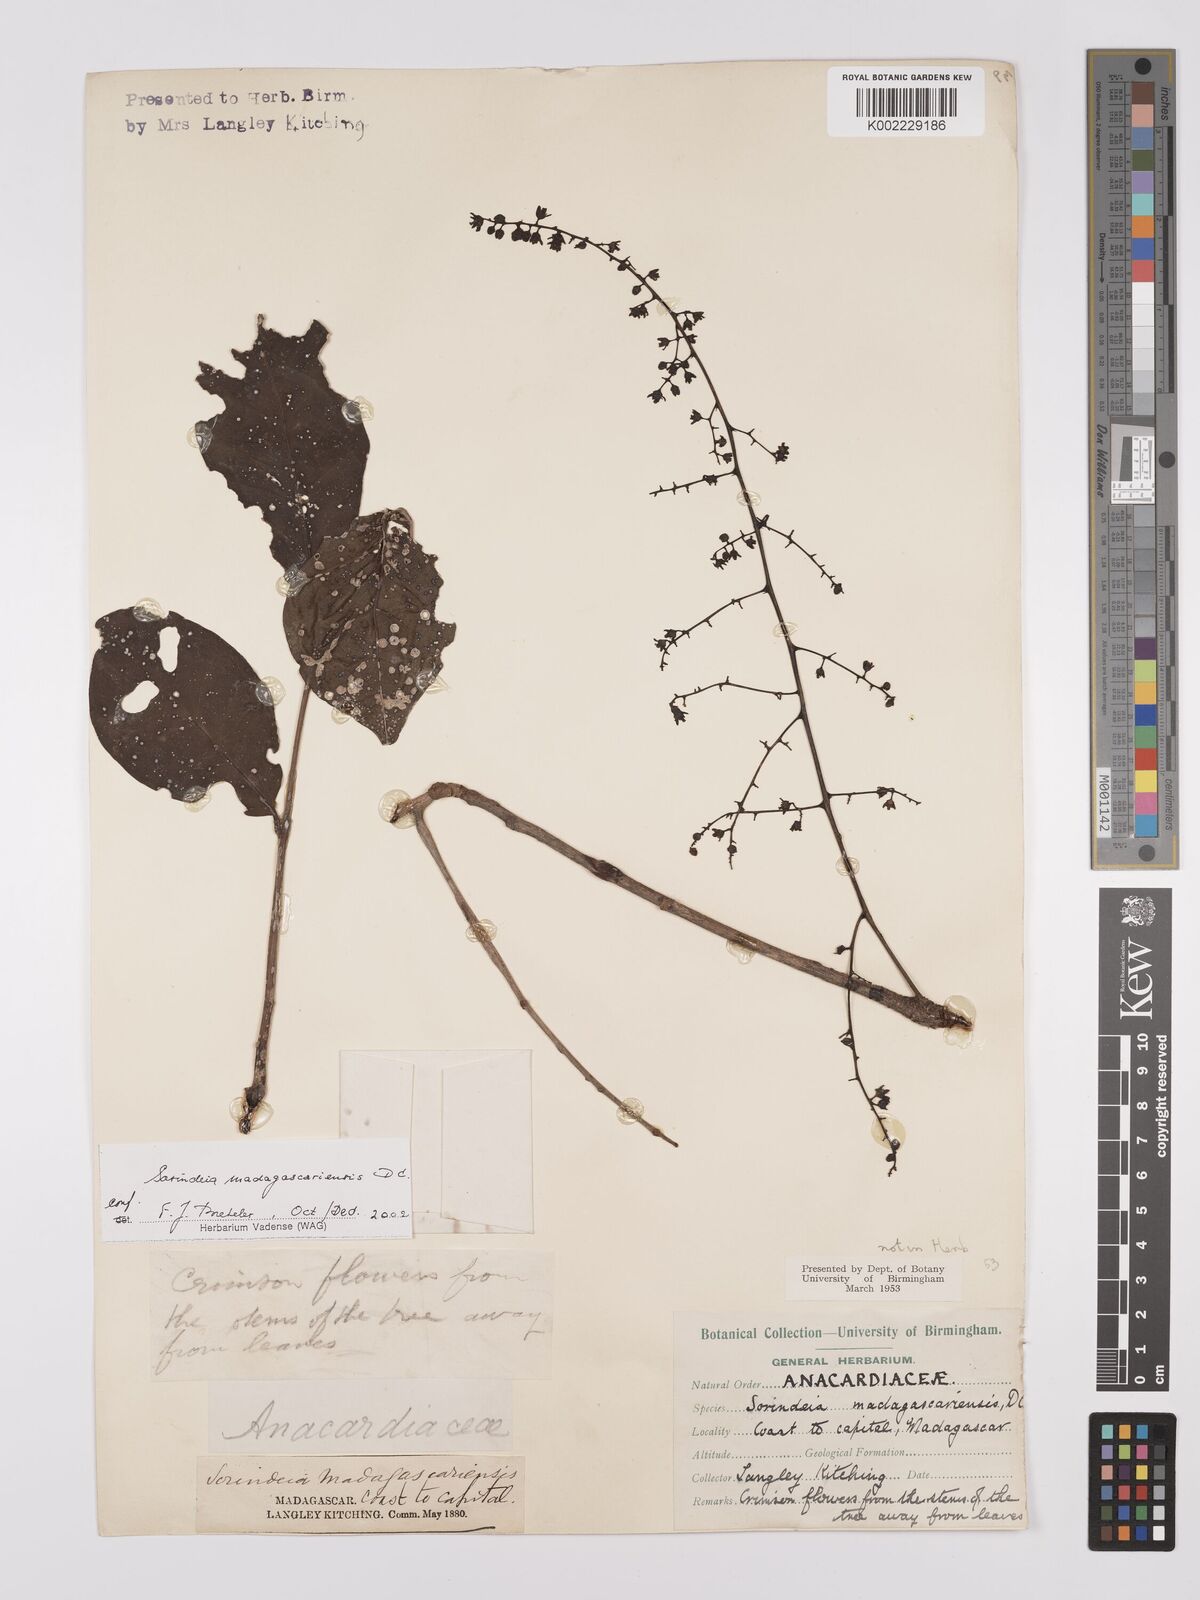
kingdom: Plantae
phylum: Tracheophyta
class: Magnoliopsida
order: Sapindales
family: Anacardiaceae
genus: Sorindeia
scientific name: Sorindeia madagascariensis
